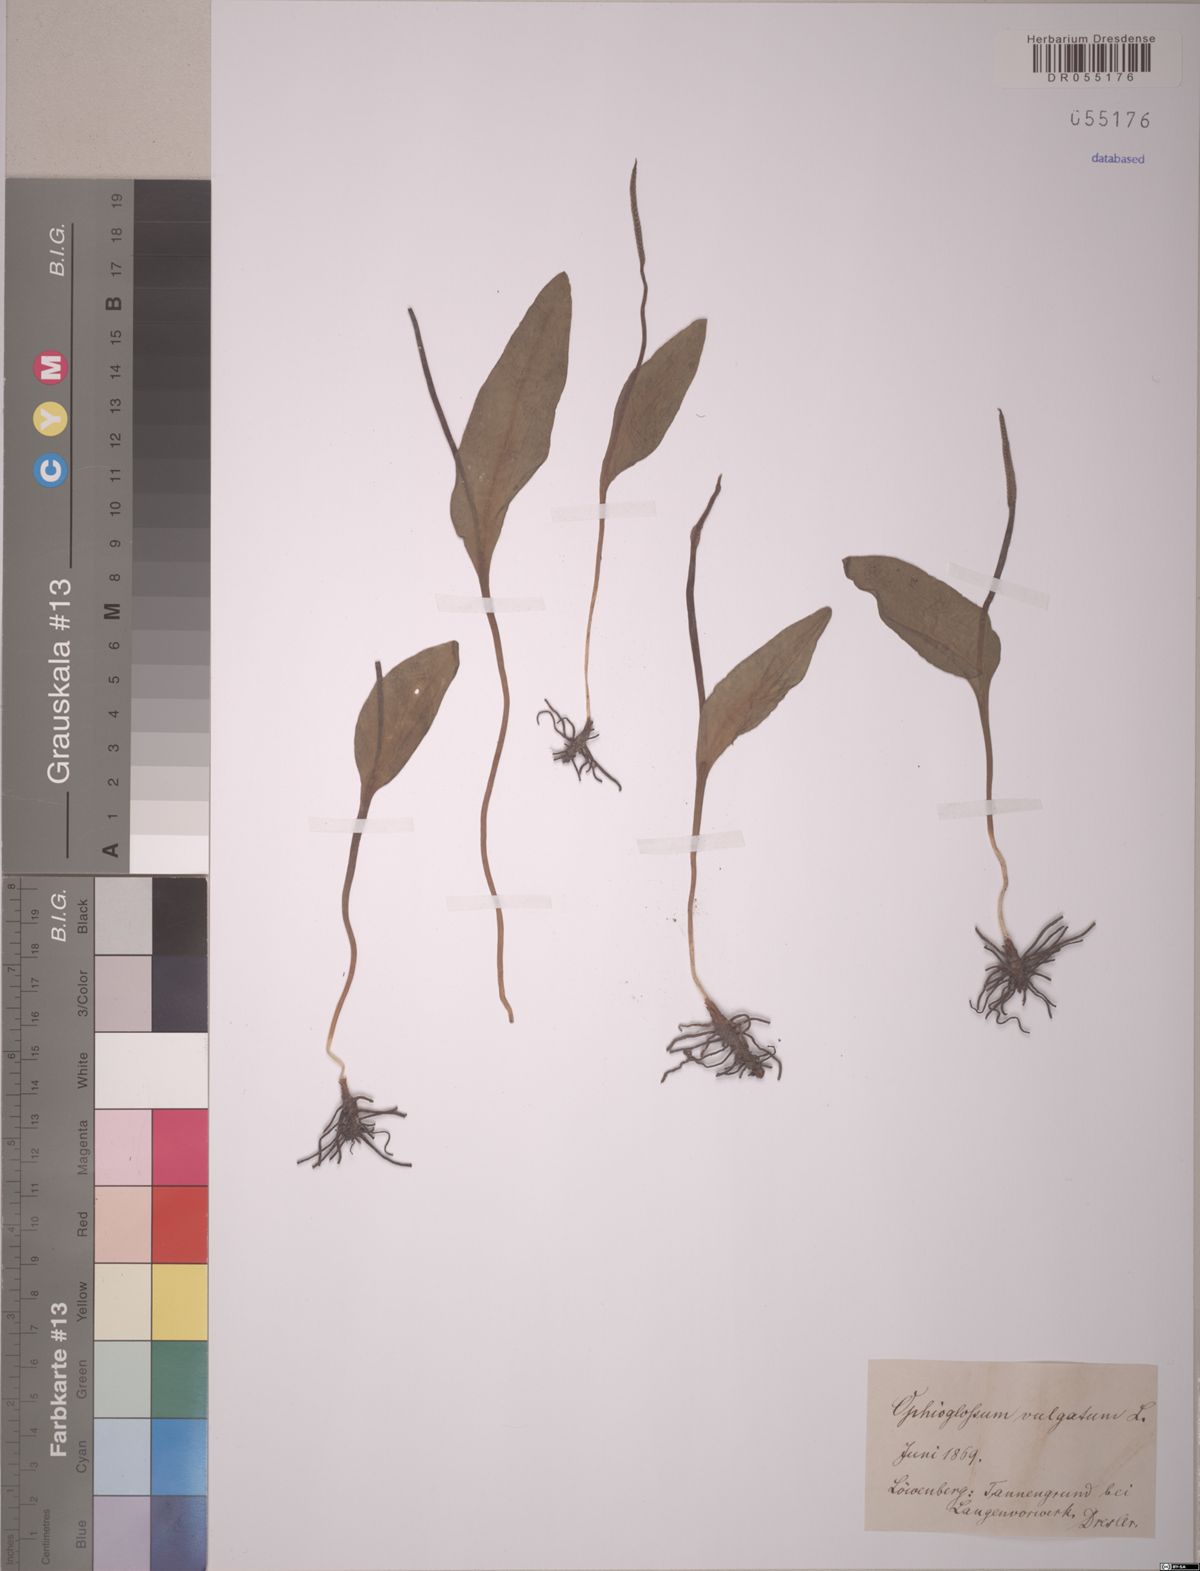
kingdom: Plantae
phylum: Tracheophyta
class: Polypodiopsida
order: Ophioglossales
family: Ophioglossaceae
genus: Ophioglossum
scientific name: Ophioglossum vulgatum
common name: Adder's-tongue
